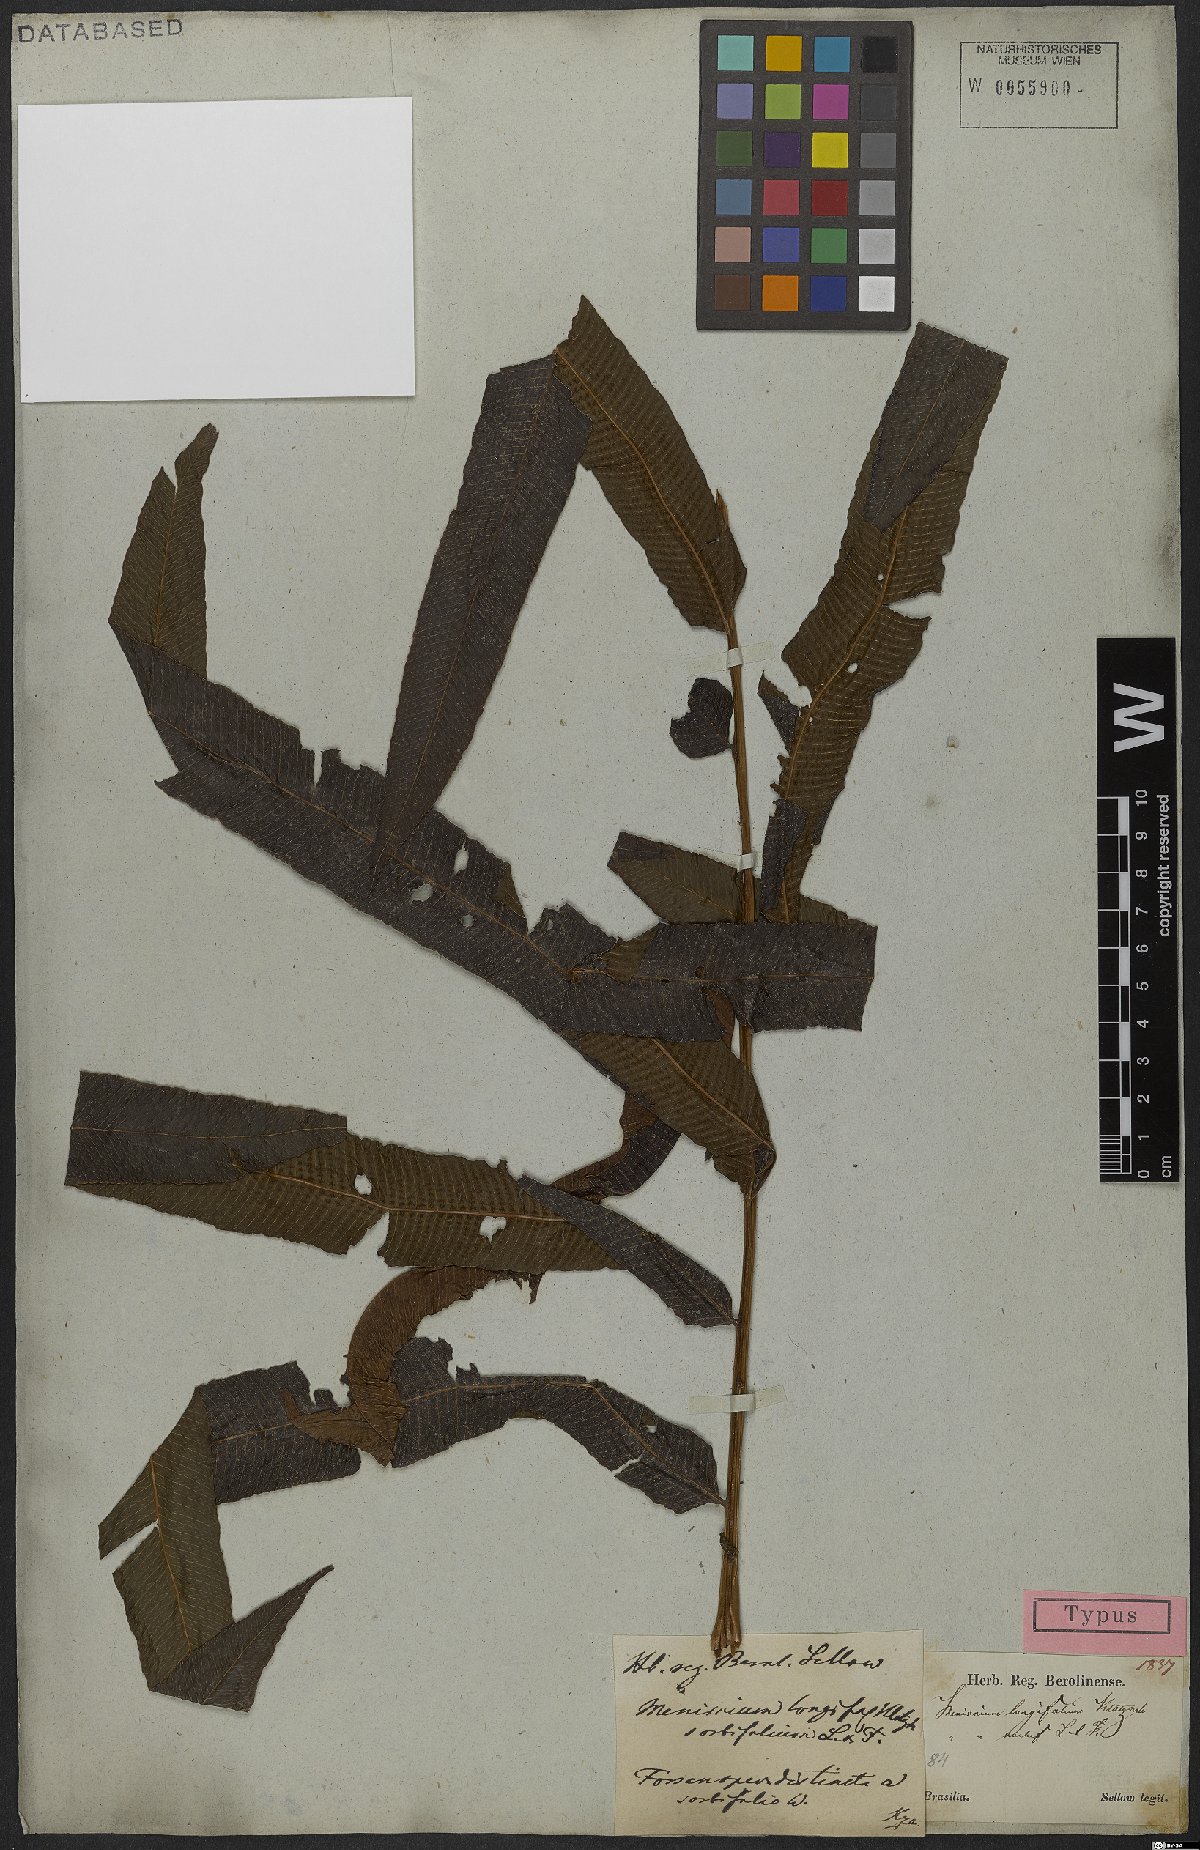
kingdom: Plantae
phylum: Tracheophyta
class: Polypodiopsida
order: Polypodiales
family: Thelypteridaceae
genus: Meniscium
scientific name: Meniscium longifolium
